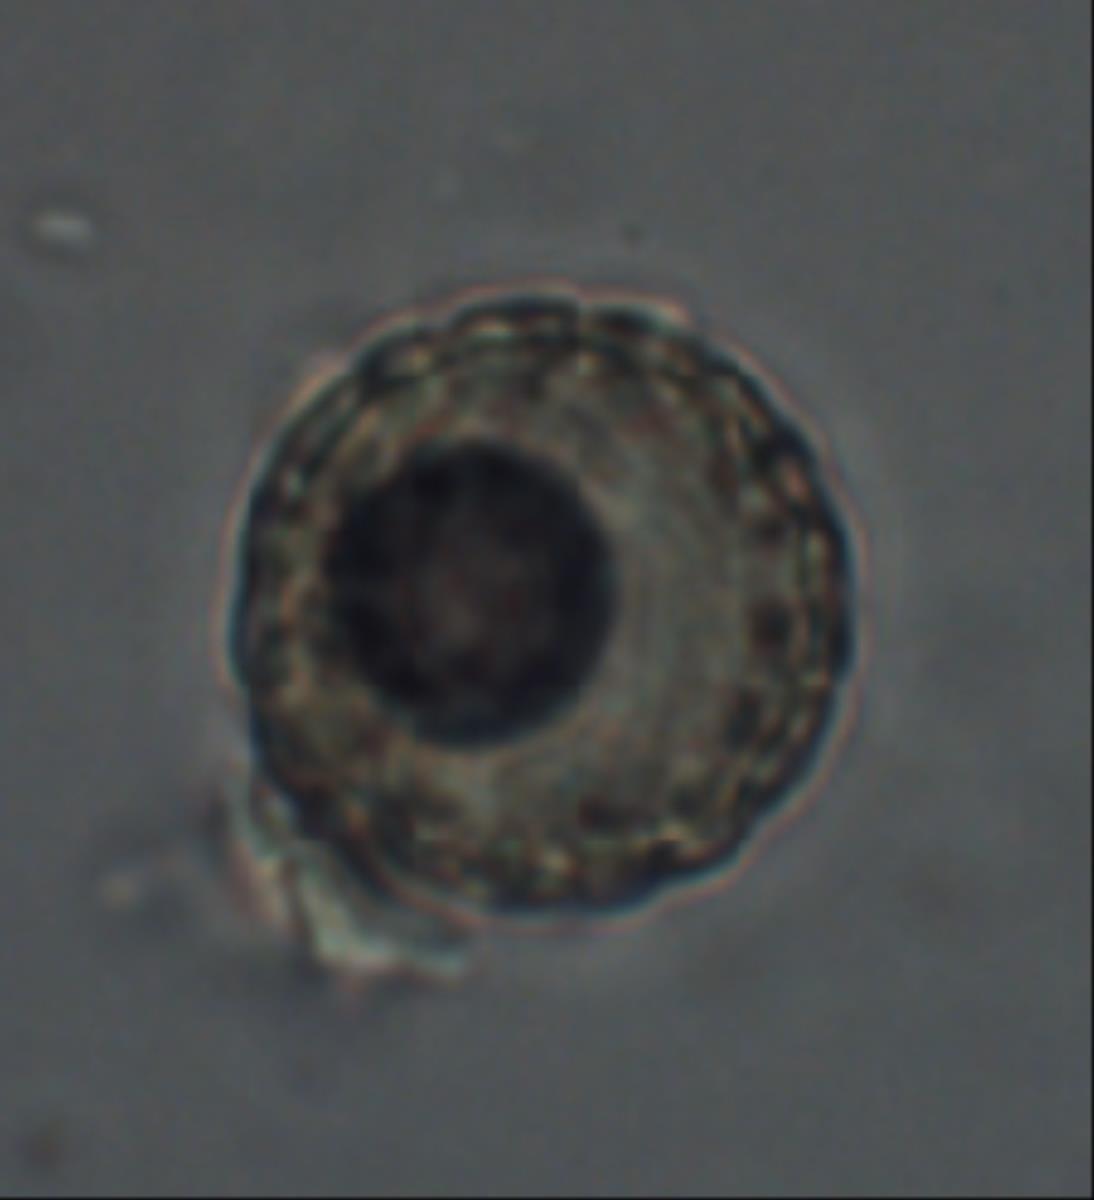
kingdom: Fungi
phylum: Ascomycota
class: Pezizomycetes
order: Pezizales
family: Pyronemataceae
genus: Plicaria
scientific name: Plicaria recurva
